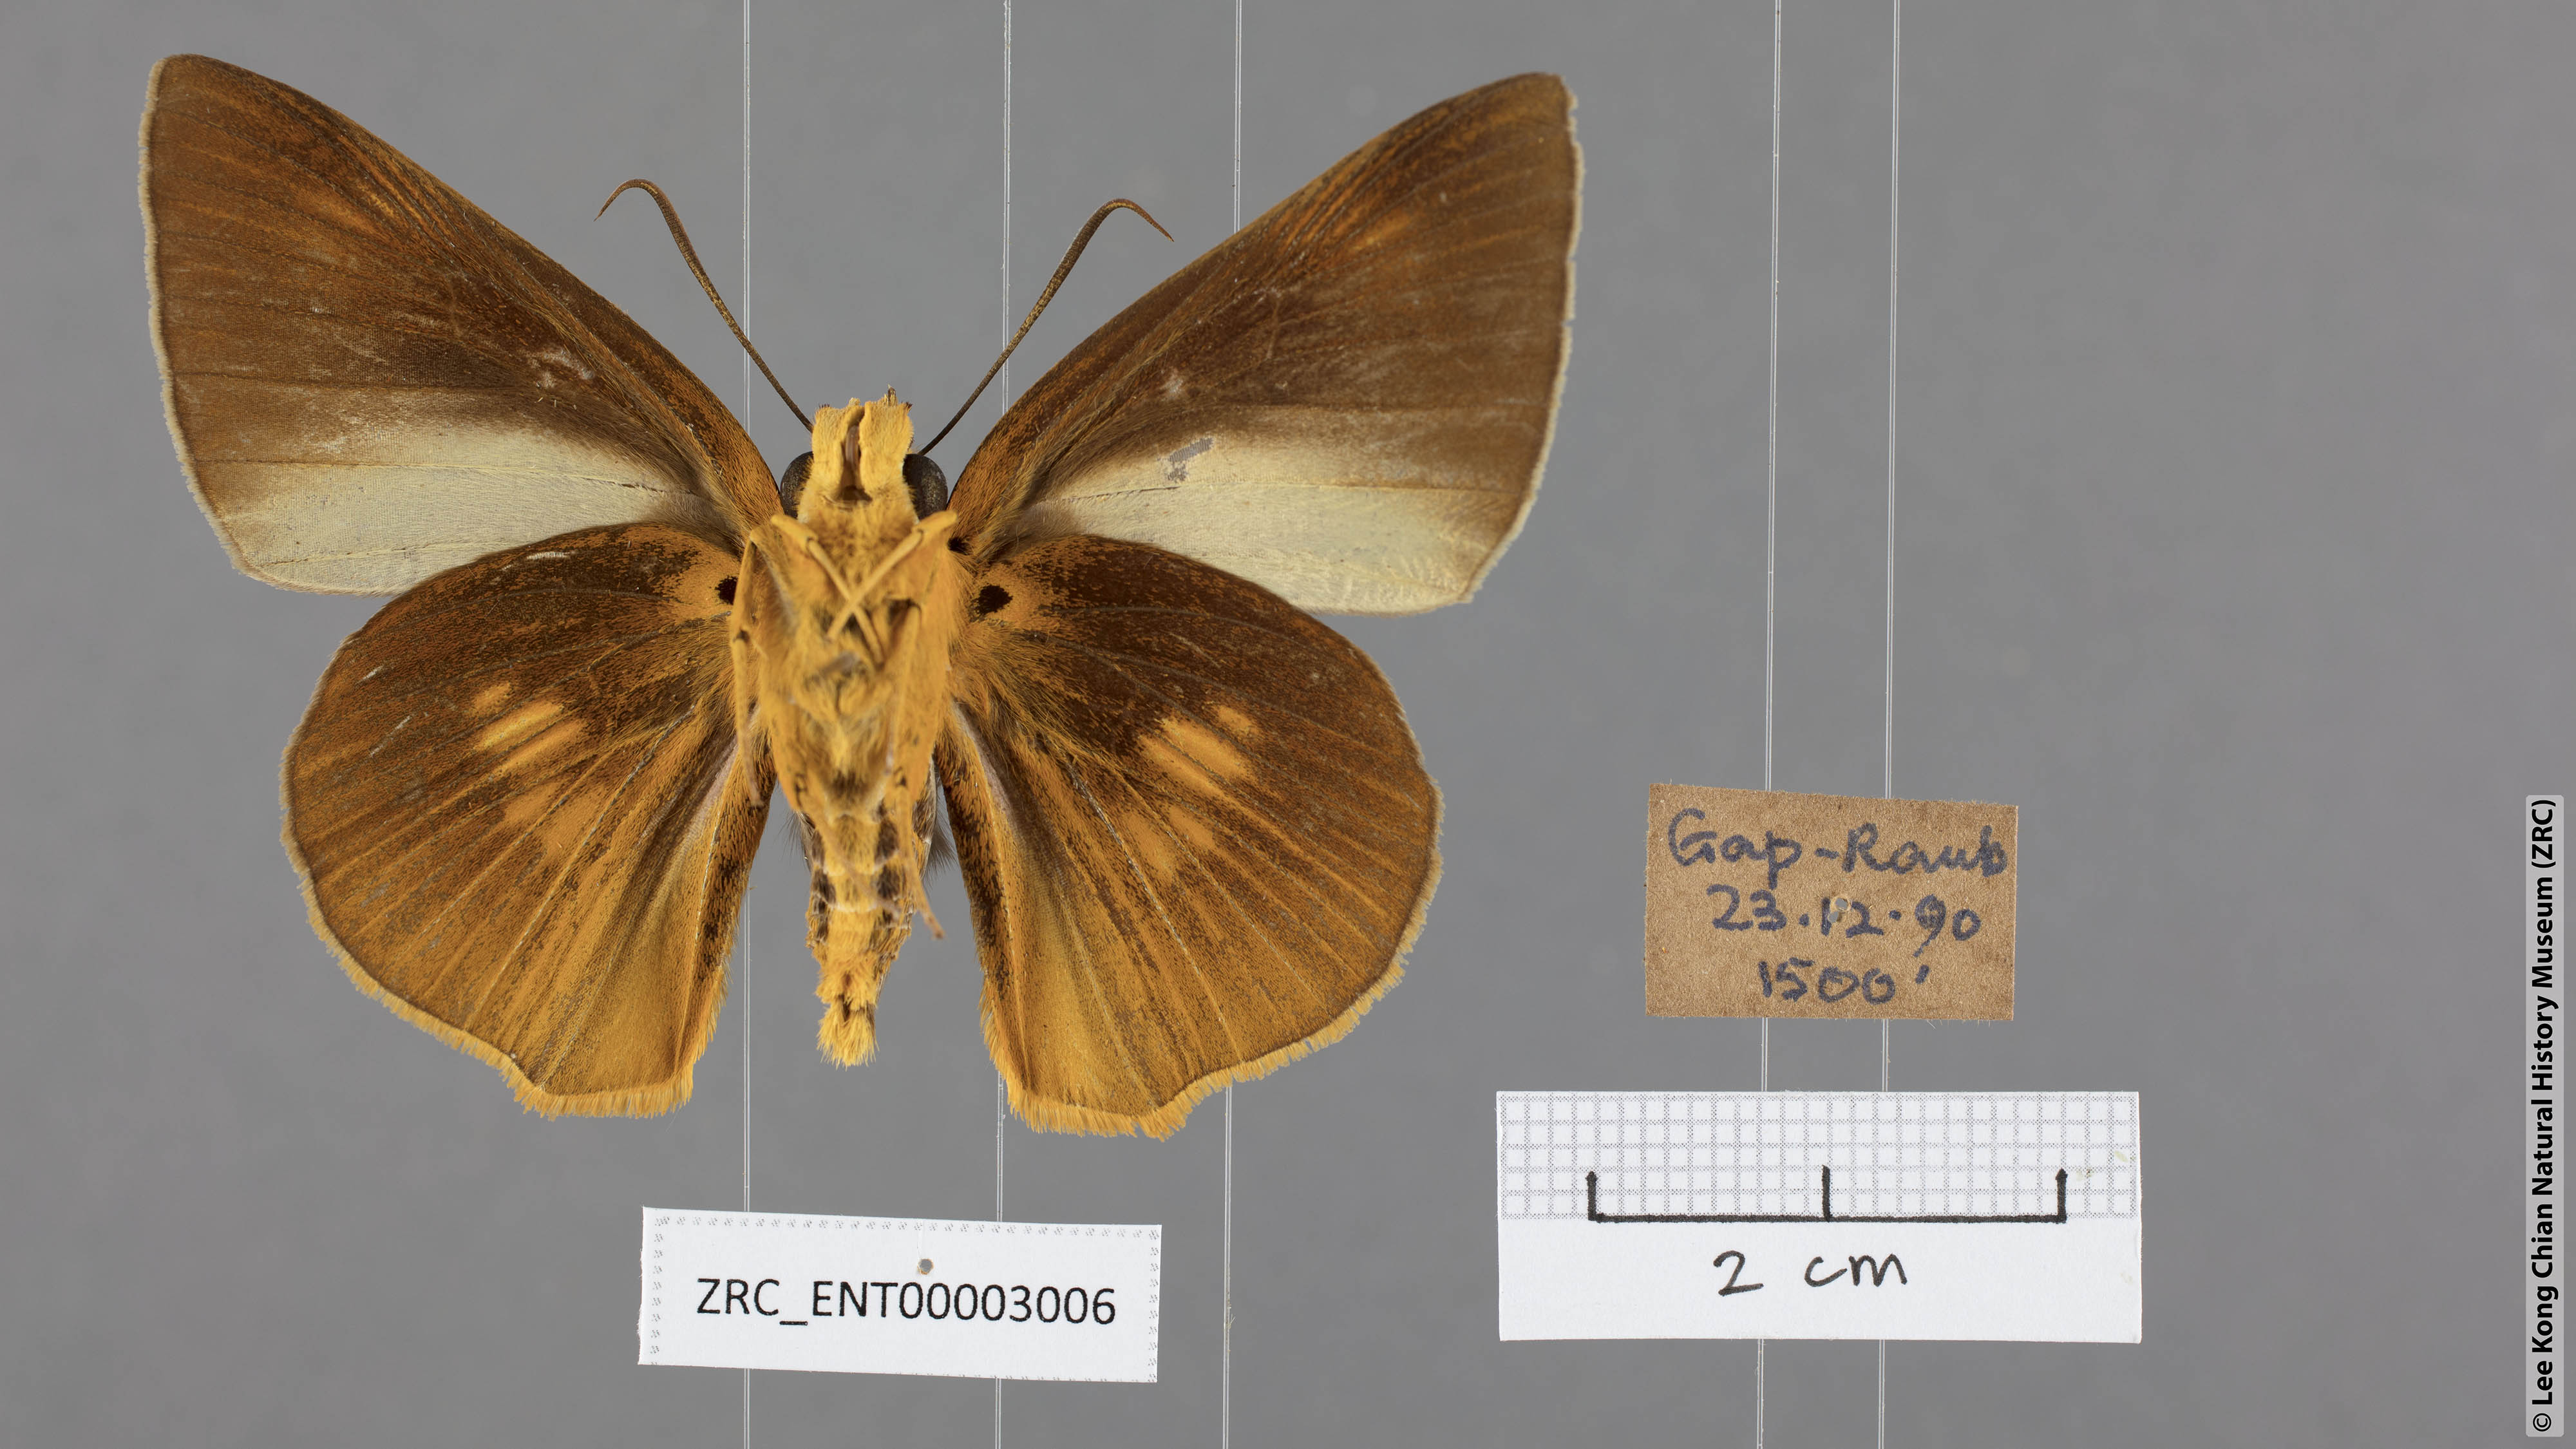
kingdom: Animalia
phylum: Arthropoda
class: Insecta
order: Lepidoptera
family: Hesperiidae
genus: Bibasis
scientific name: Bibasis etelka
